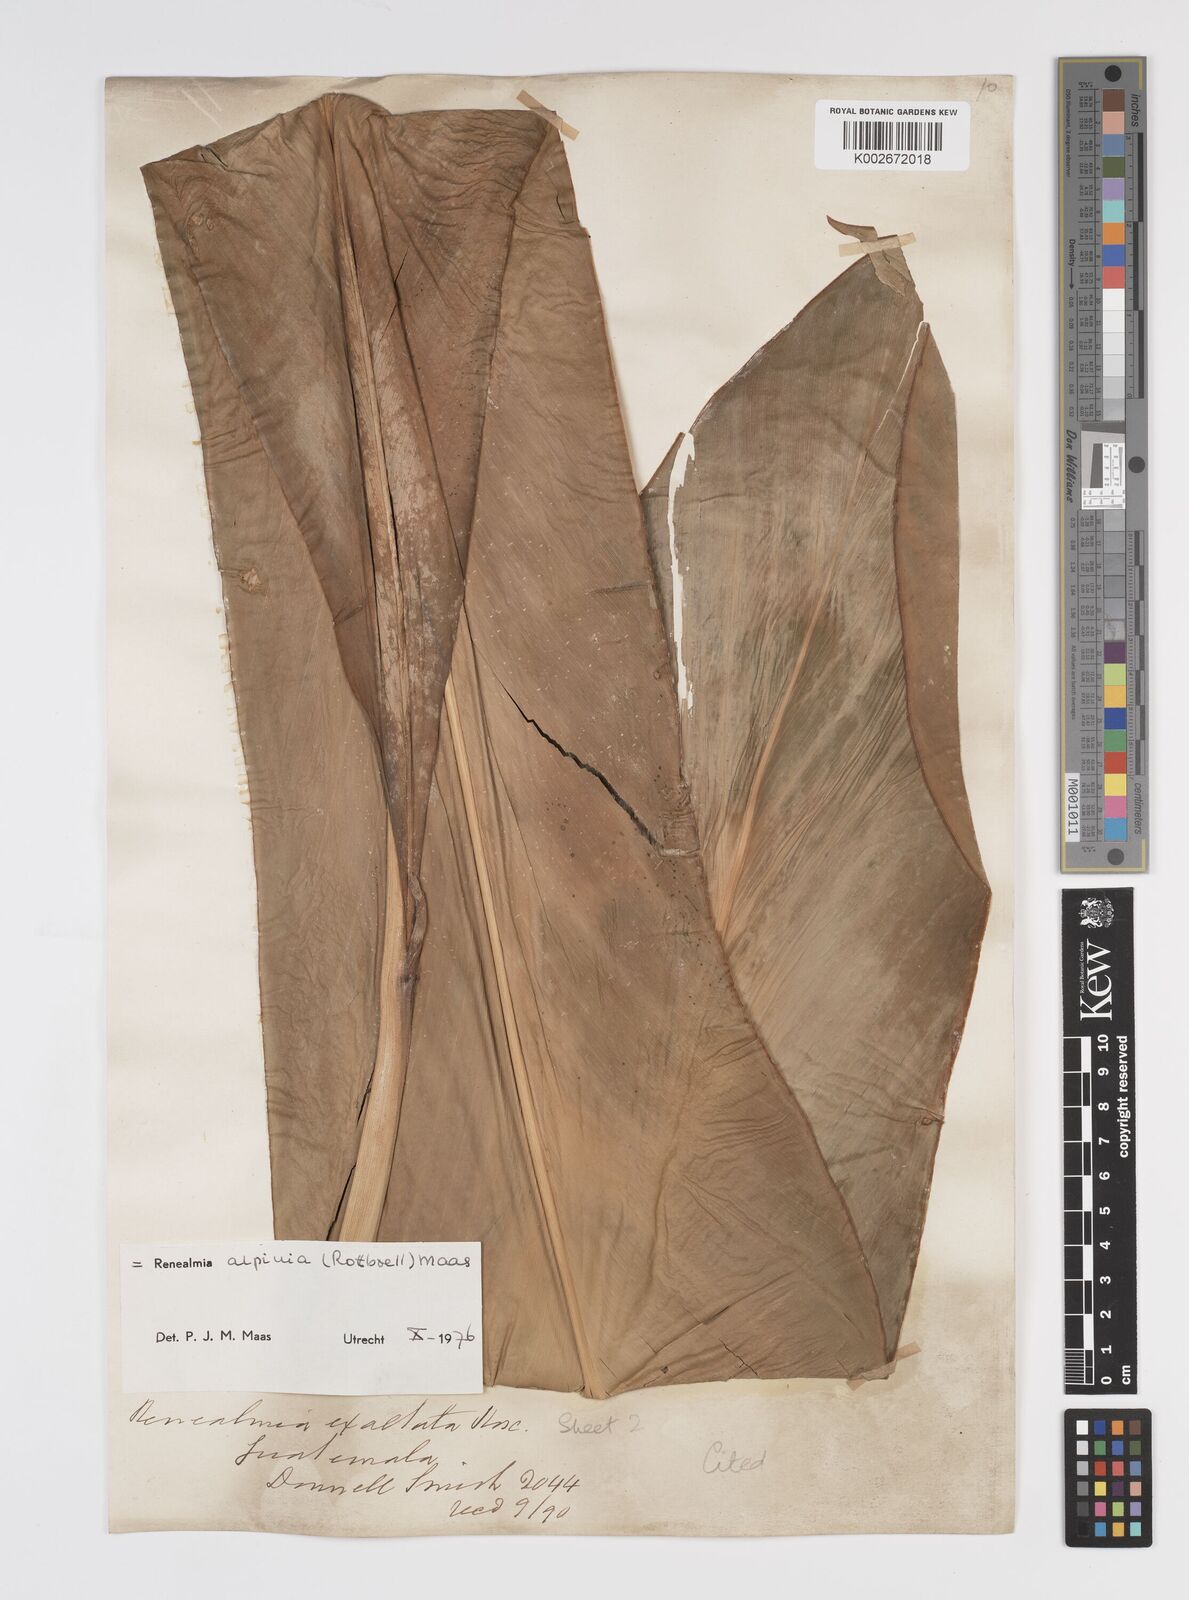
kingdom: Plantae
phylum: Tracheophyta
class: Liliopsida
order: Zingiberales
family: Zingiberaceae
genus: Renealmia
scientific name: Renealmia alpinia
